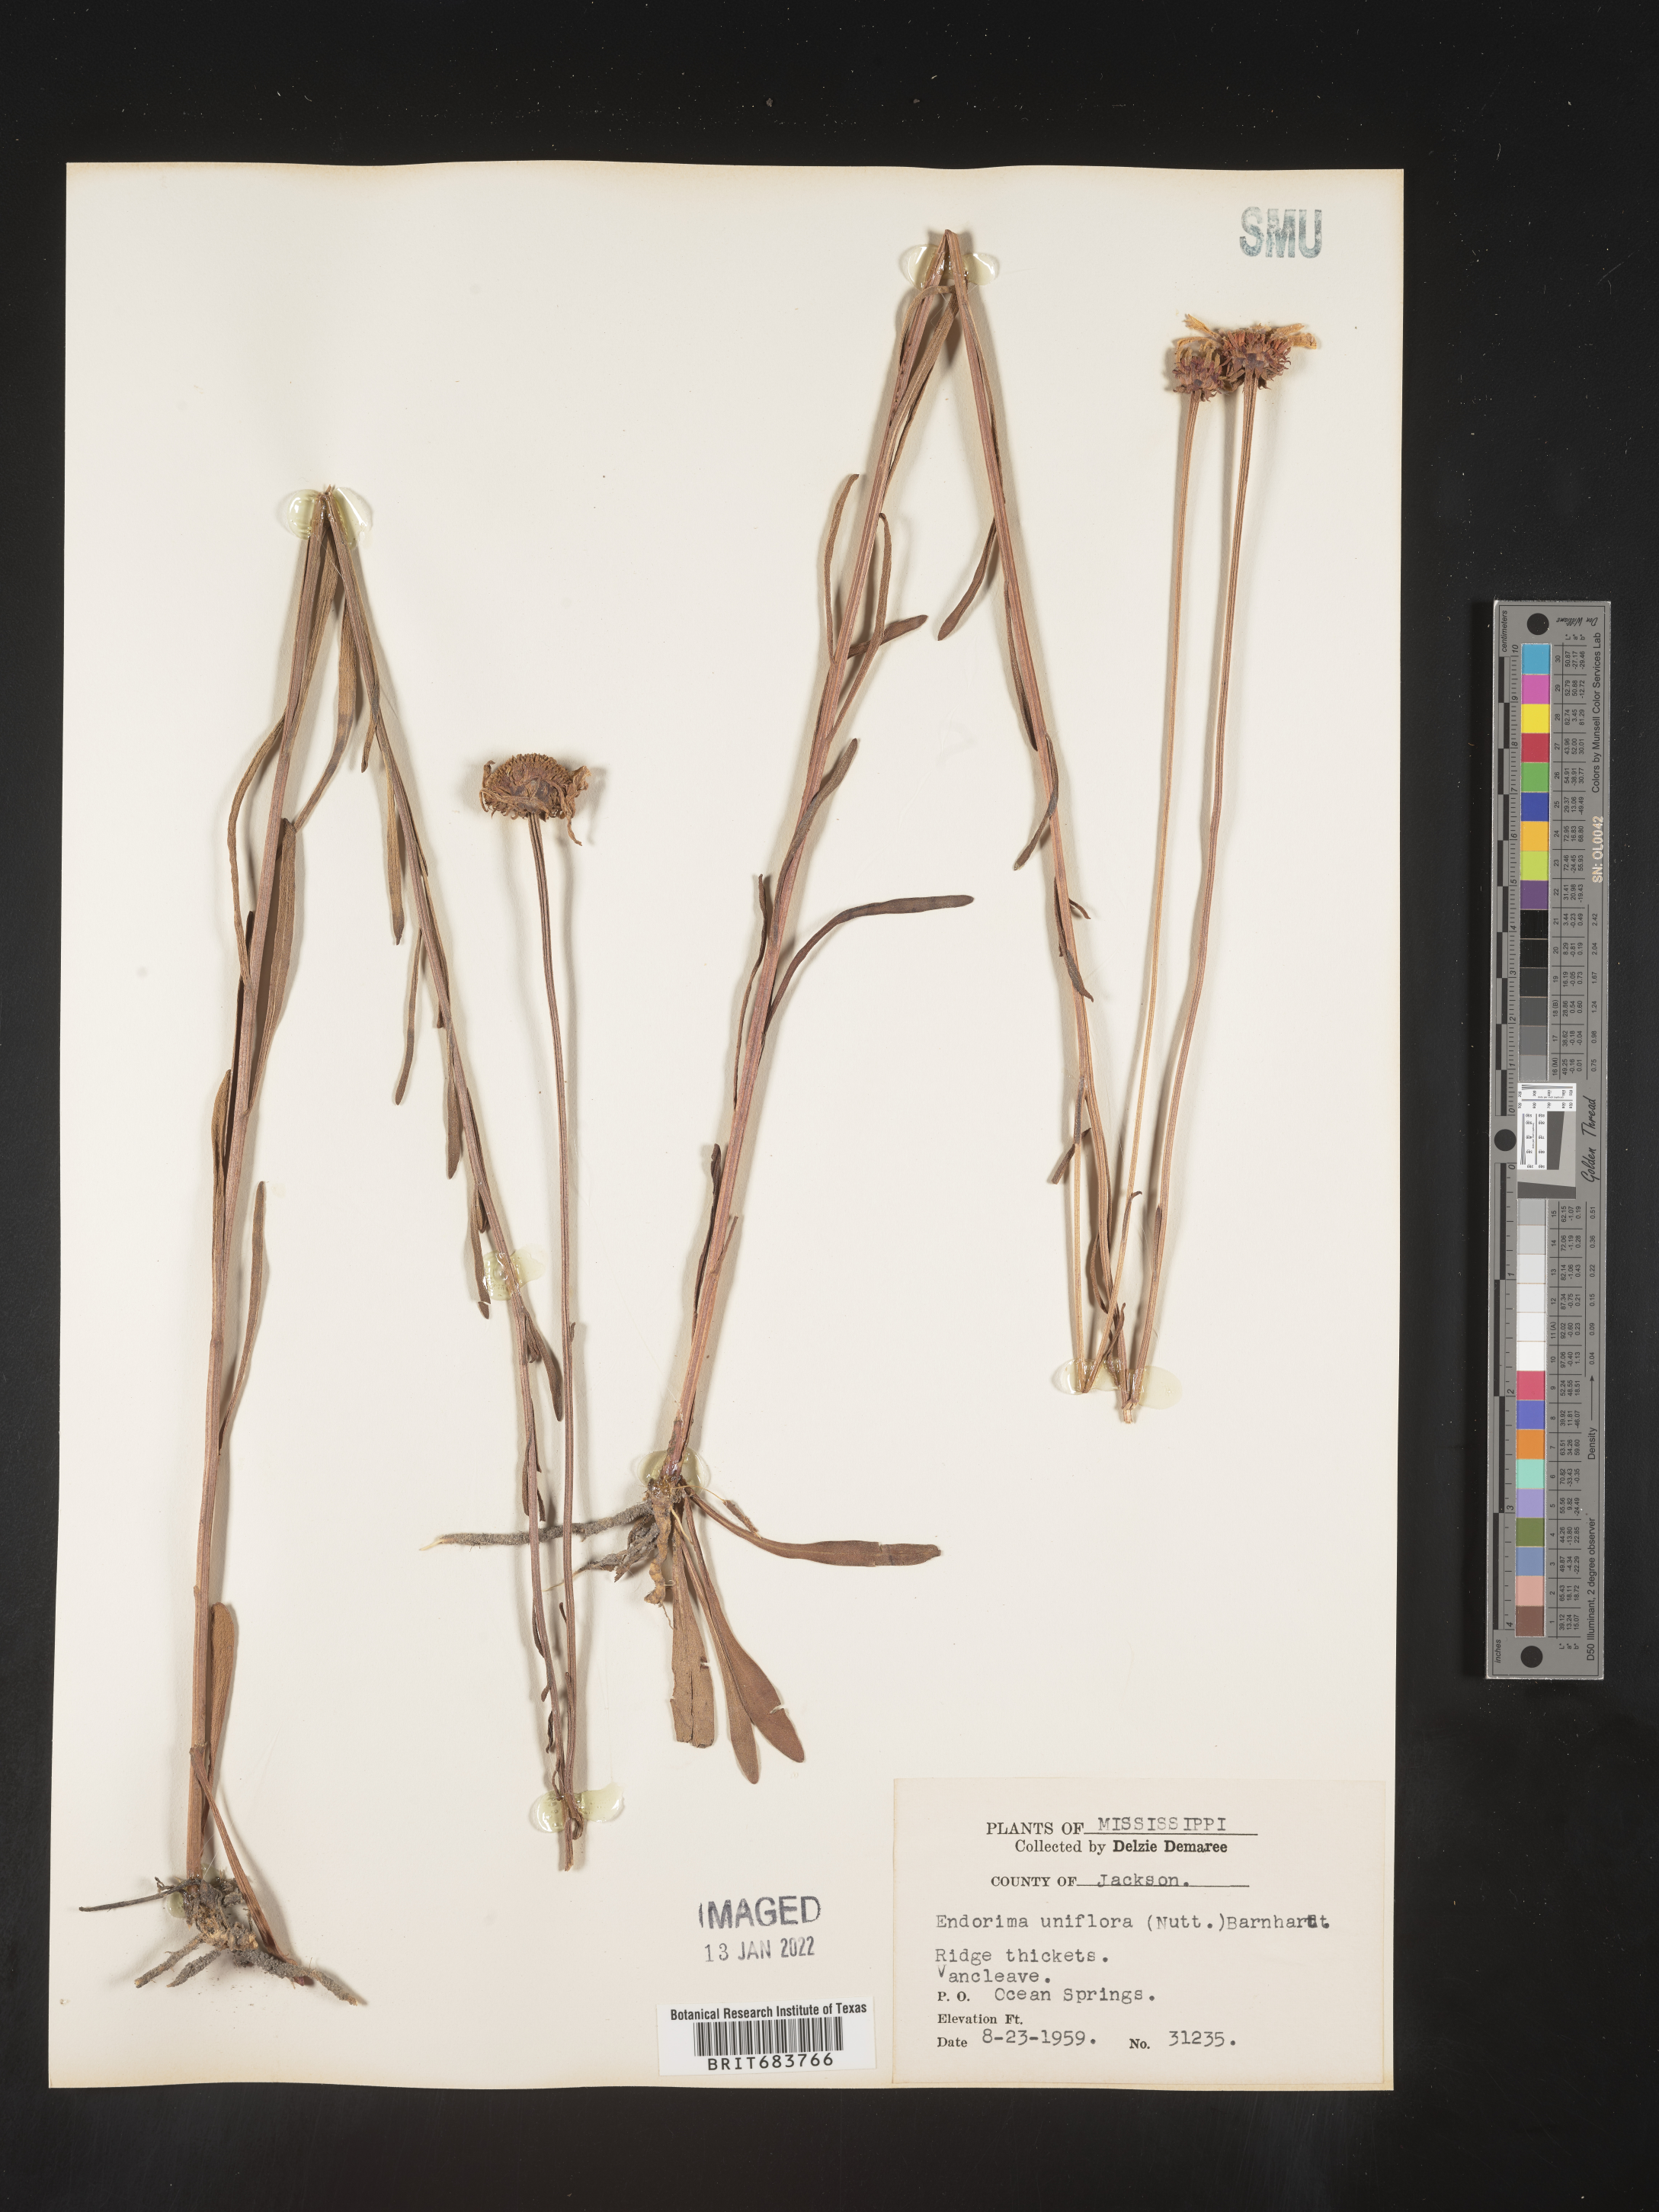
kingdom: Plantae
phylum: Tracheophyta
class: Magnoliopsida
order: Asterales
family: Asteraceae
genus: Balduina
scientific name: Balduina uniflora
